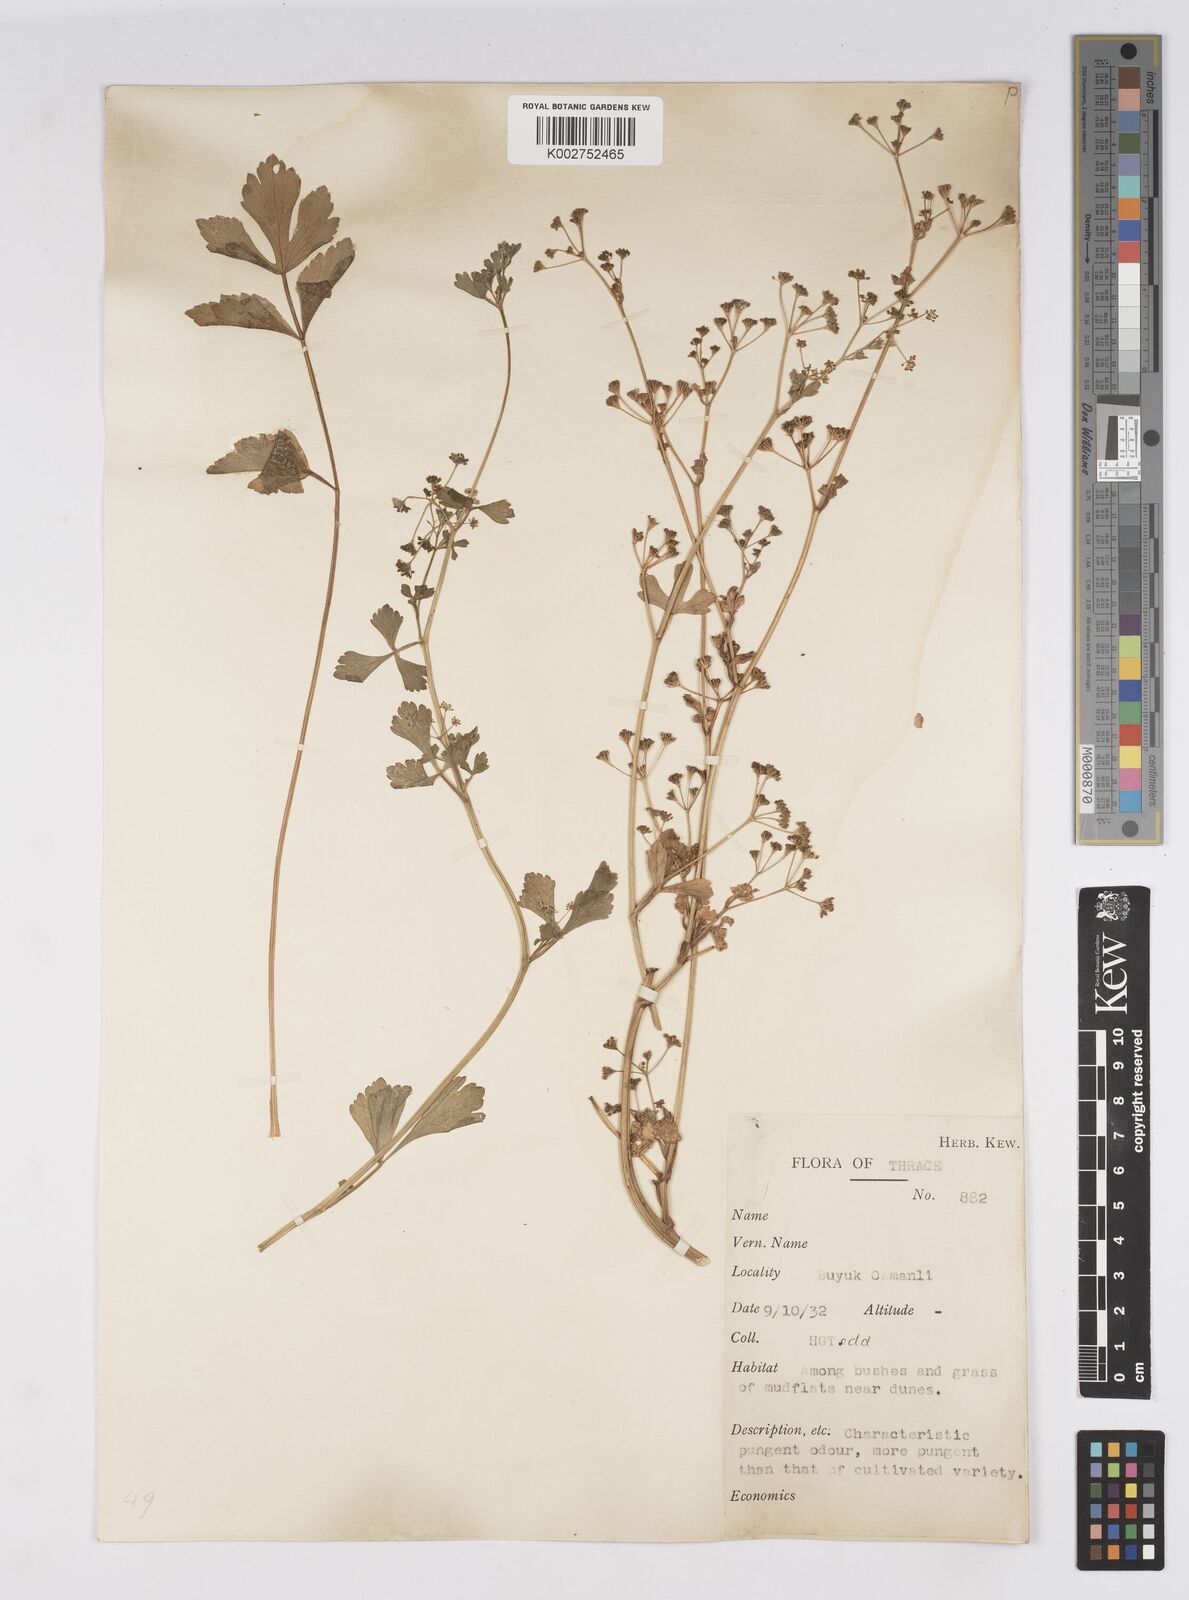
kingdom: Plantae
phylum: Tracheophyta
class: Magnoliopsida
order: Apiales
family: Apiaceae
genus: Apium
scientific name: Apium graveolens
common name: Wild celery
